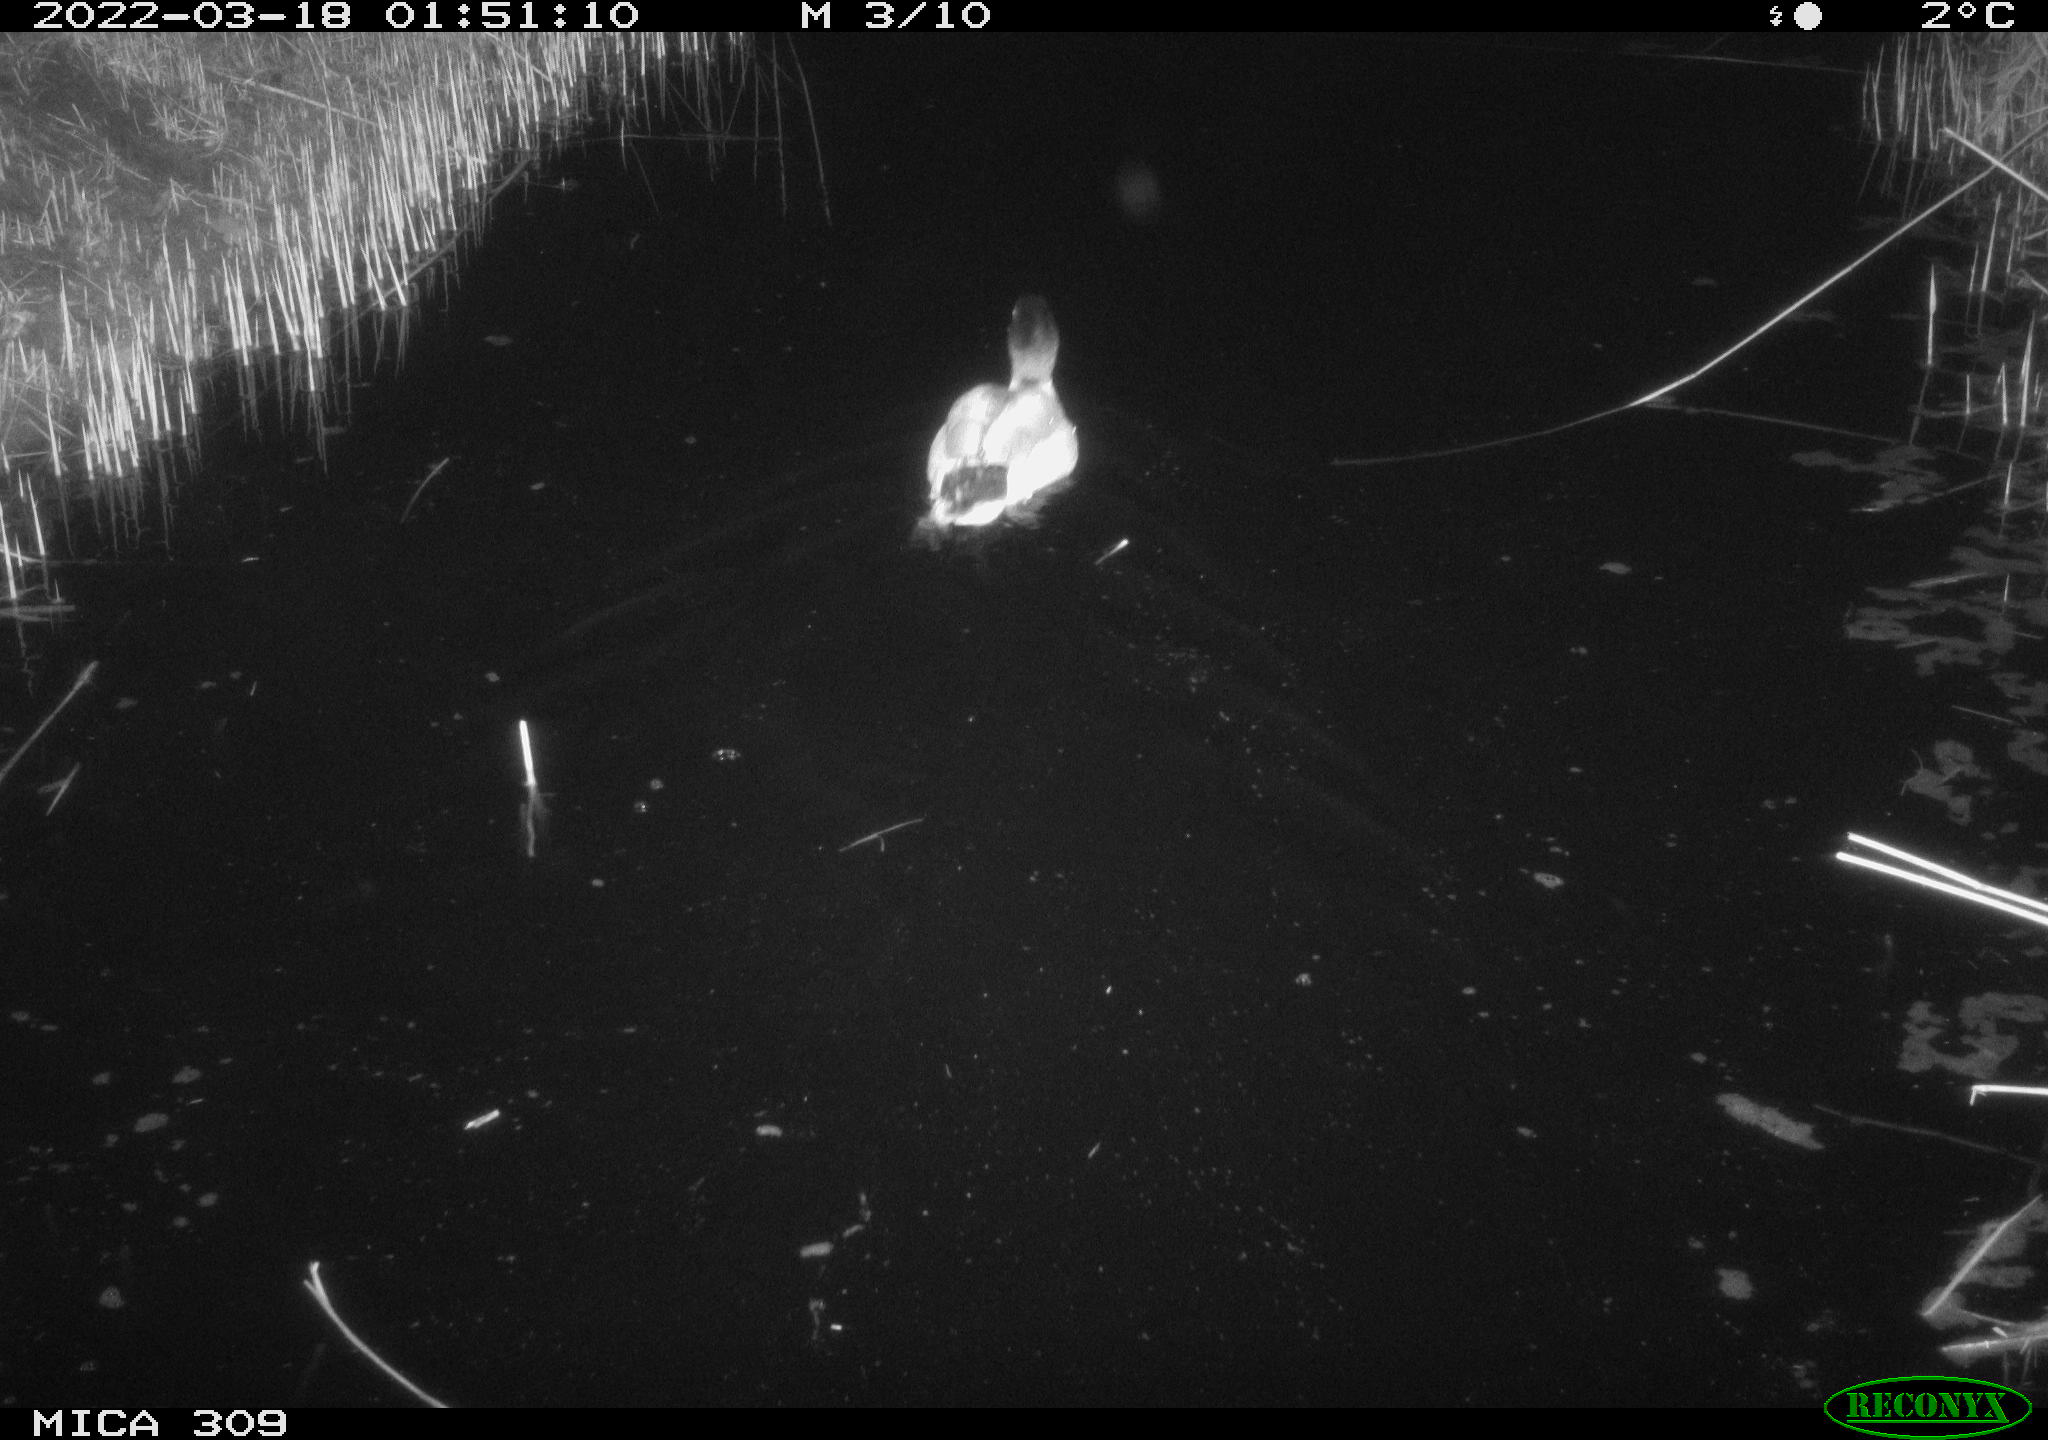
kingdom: Animalia
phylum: Chordata
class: Aves
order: Anseriformes
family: Anatidae
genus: Anas
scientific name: Anas platyrhynchos
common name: Mallard
